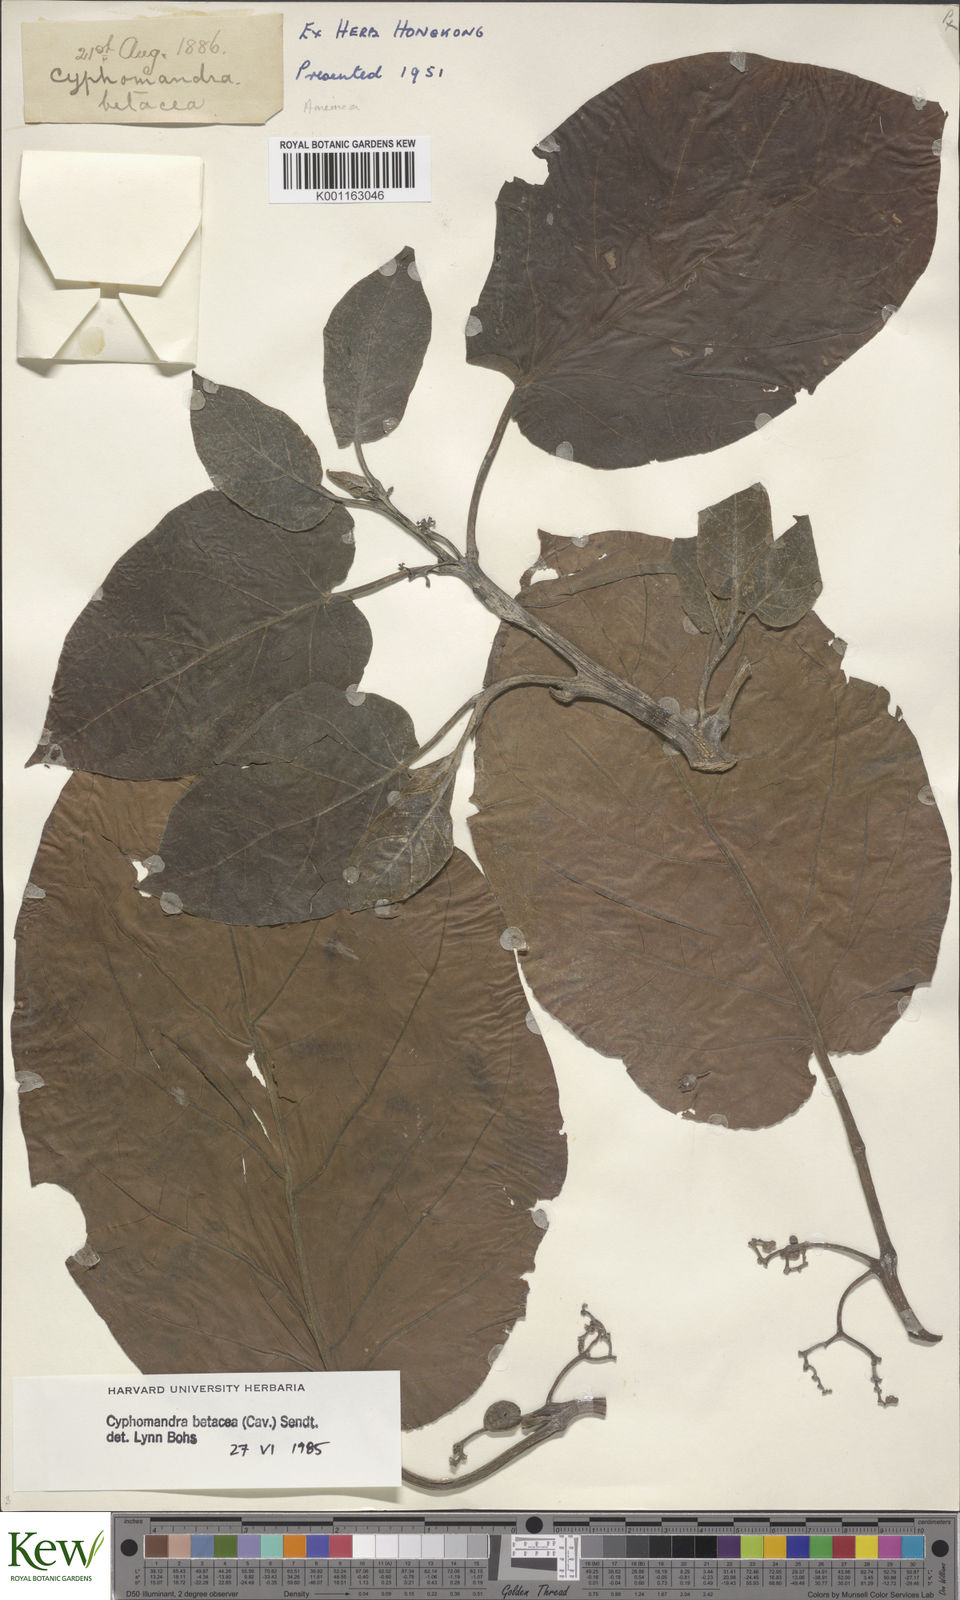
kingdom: Plantae
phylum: Tracheophyta
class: Magnoliopsida
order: Solanales
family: Solanaceae
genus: Solanum
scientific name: Solanum betaceum
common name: Tamarillo
